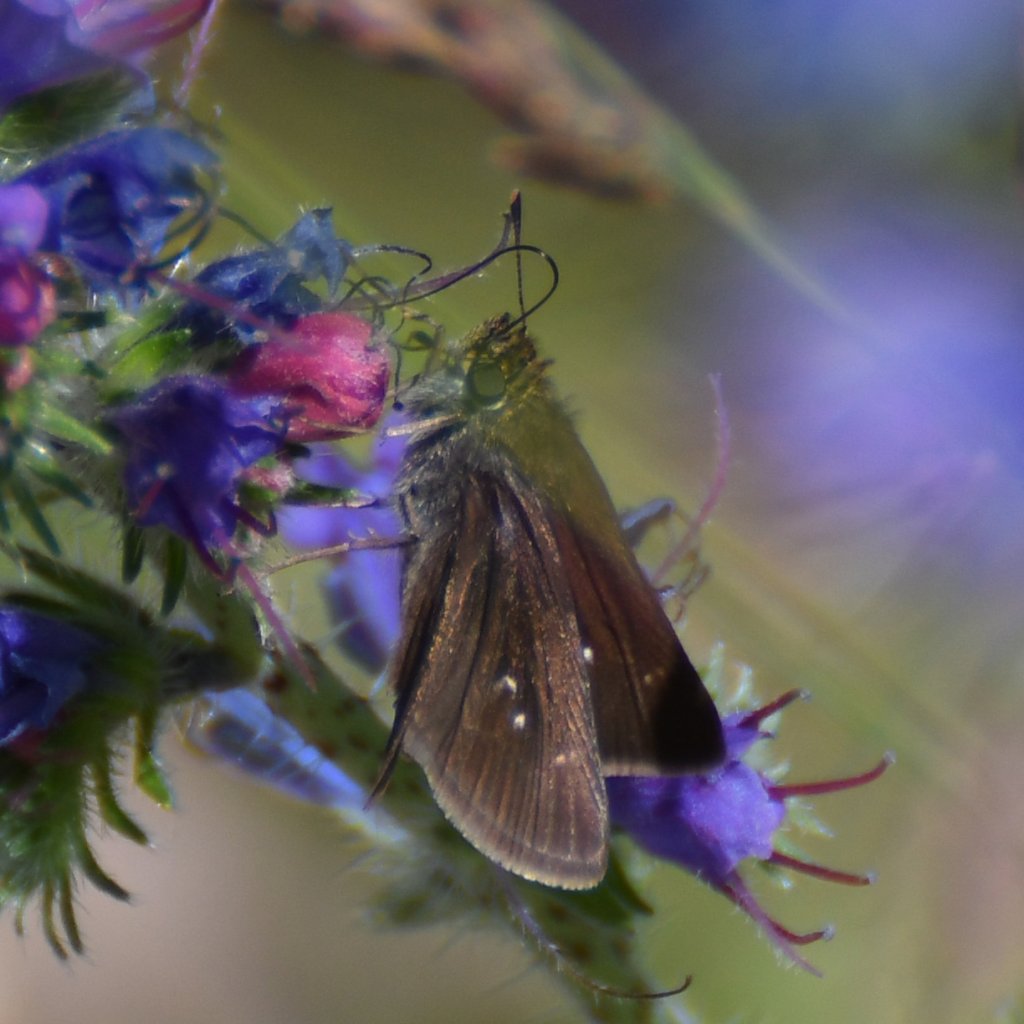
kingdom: Animalia
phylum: Arthropoda
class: Insecta
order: Lepidoptera
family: Hesperiidae
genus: Euphyes
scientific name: Euphyes vestris
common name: Dun Skipper
